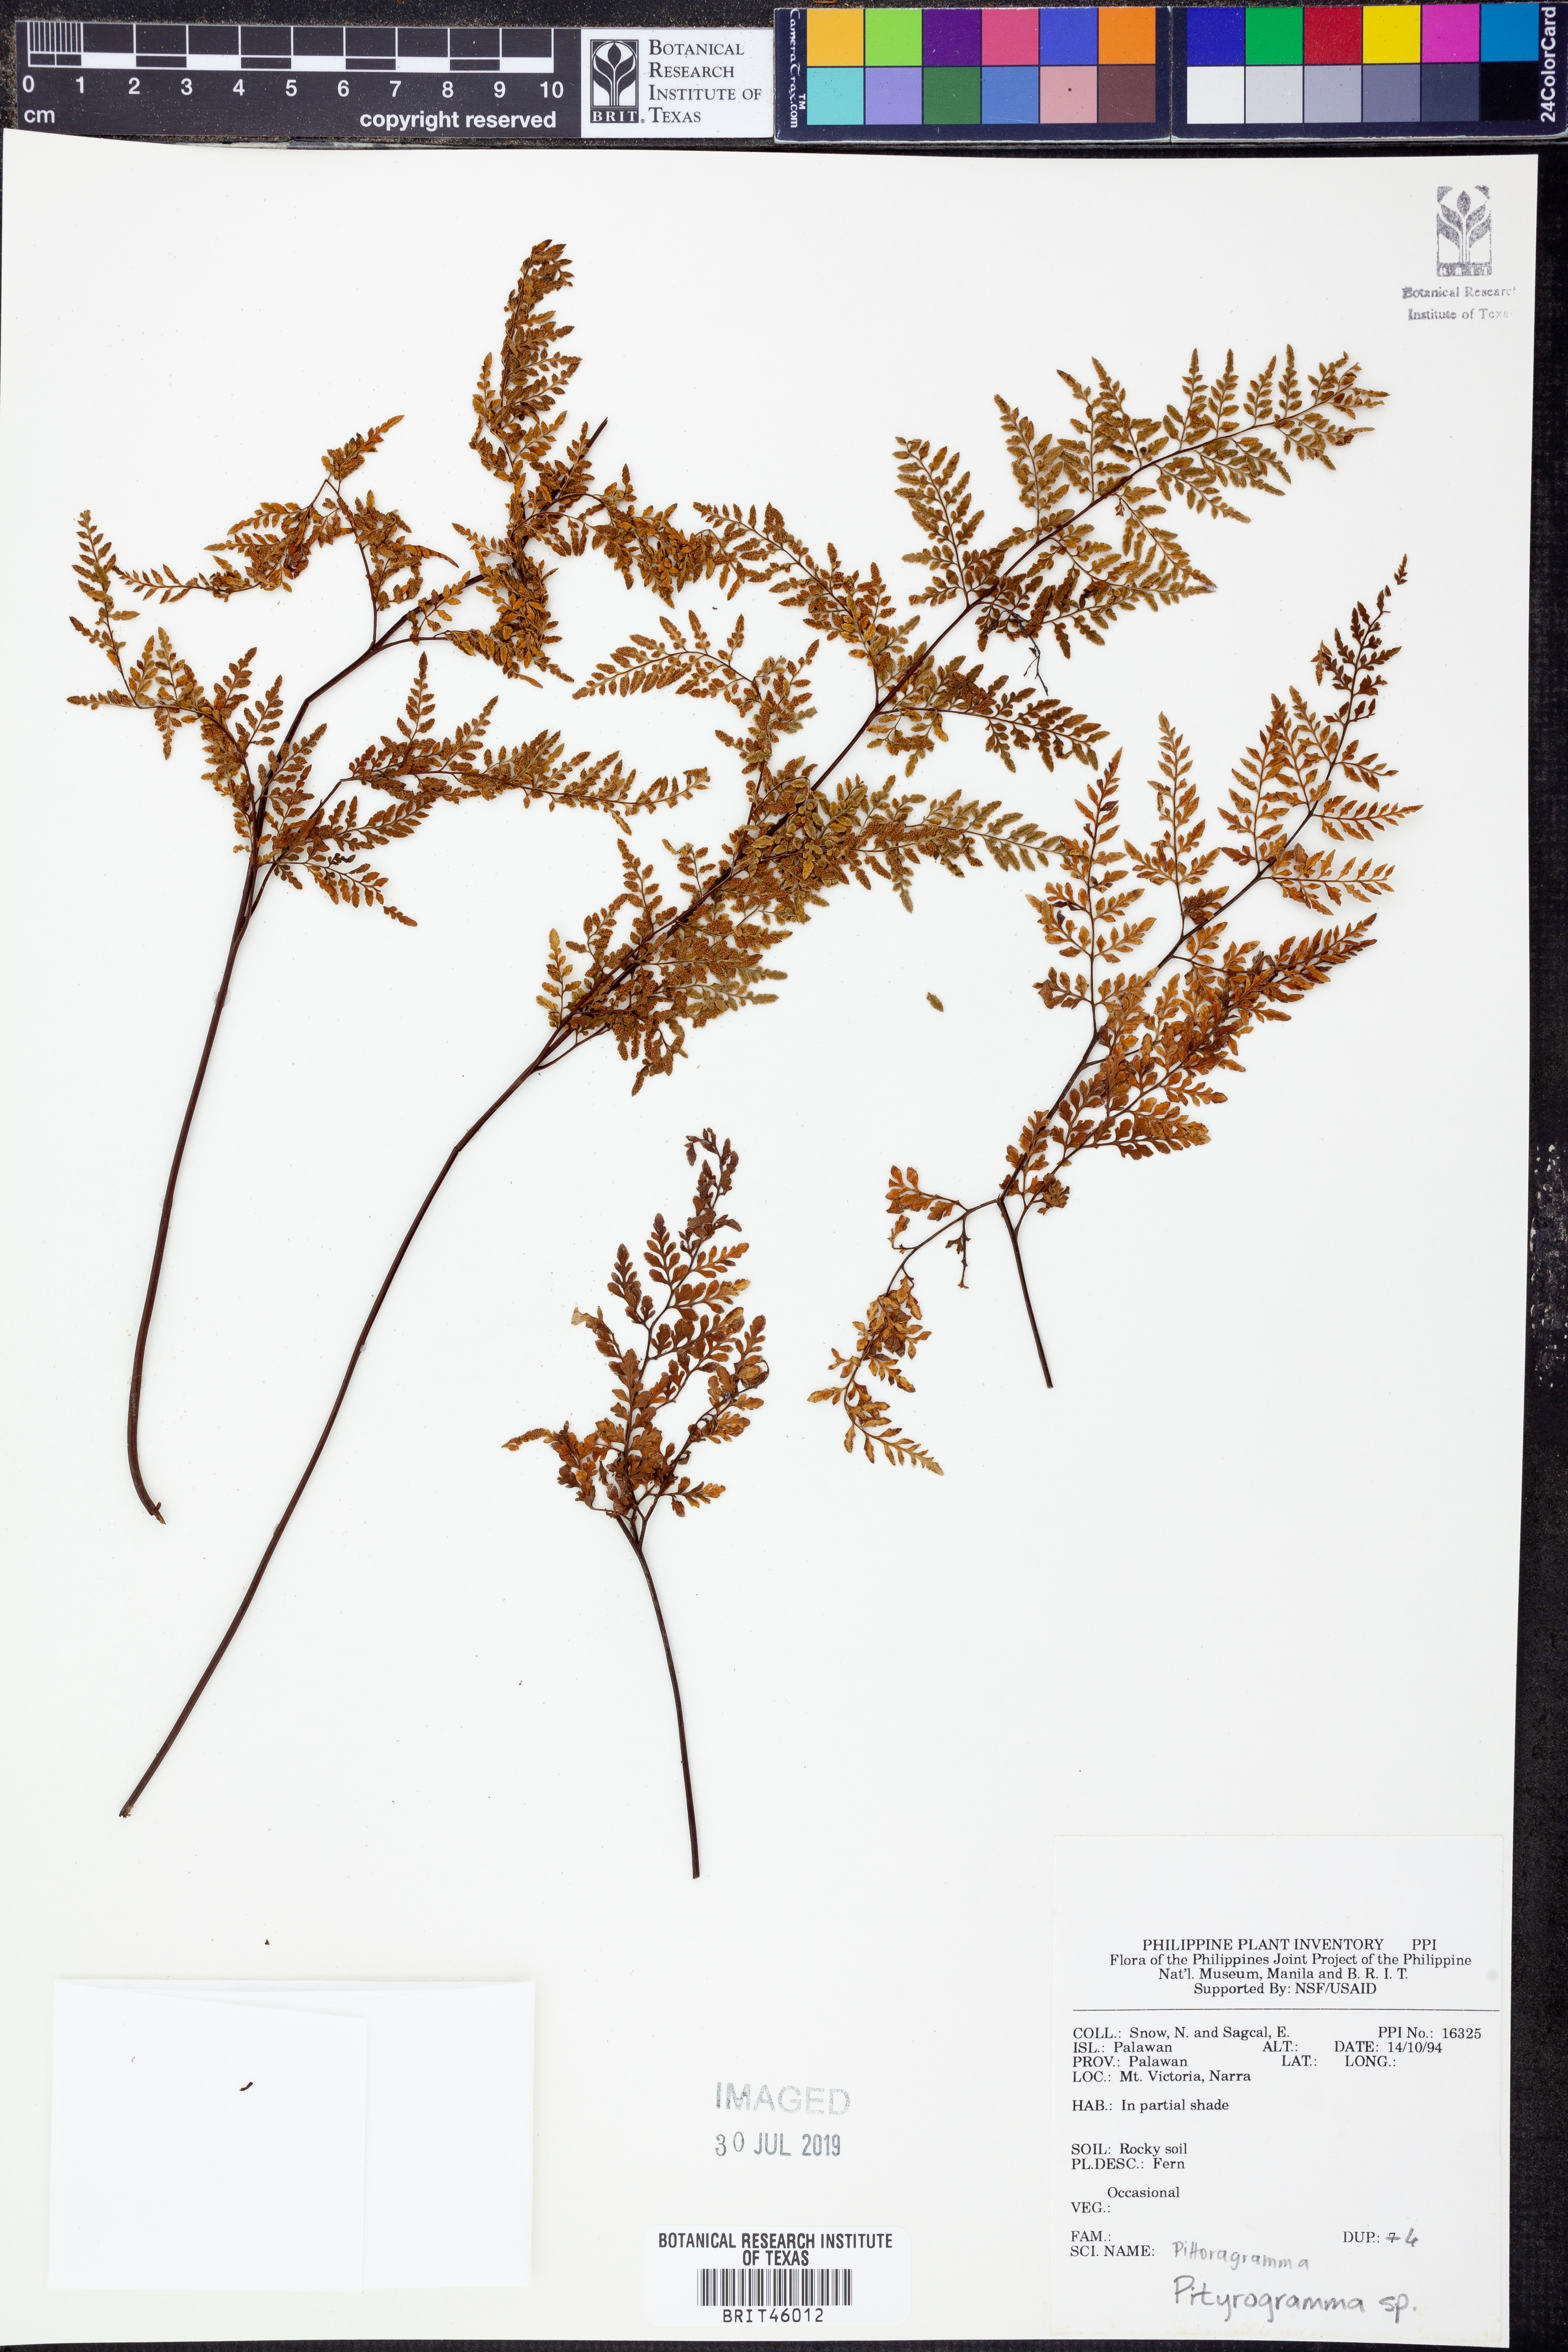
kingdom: Plantae
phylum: Tracheophyta
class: Polypodiopsida
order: Polypodiales
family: Pteridaceae
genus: Pityrogramma
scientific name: Pityrogramma
